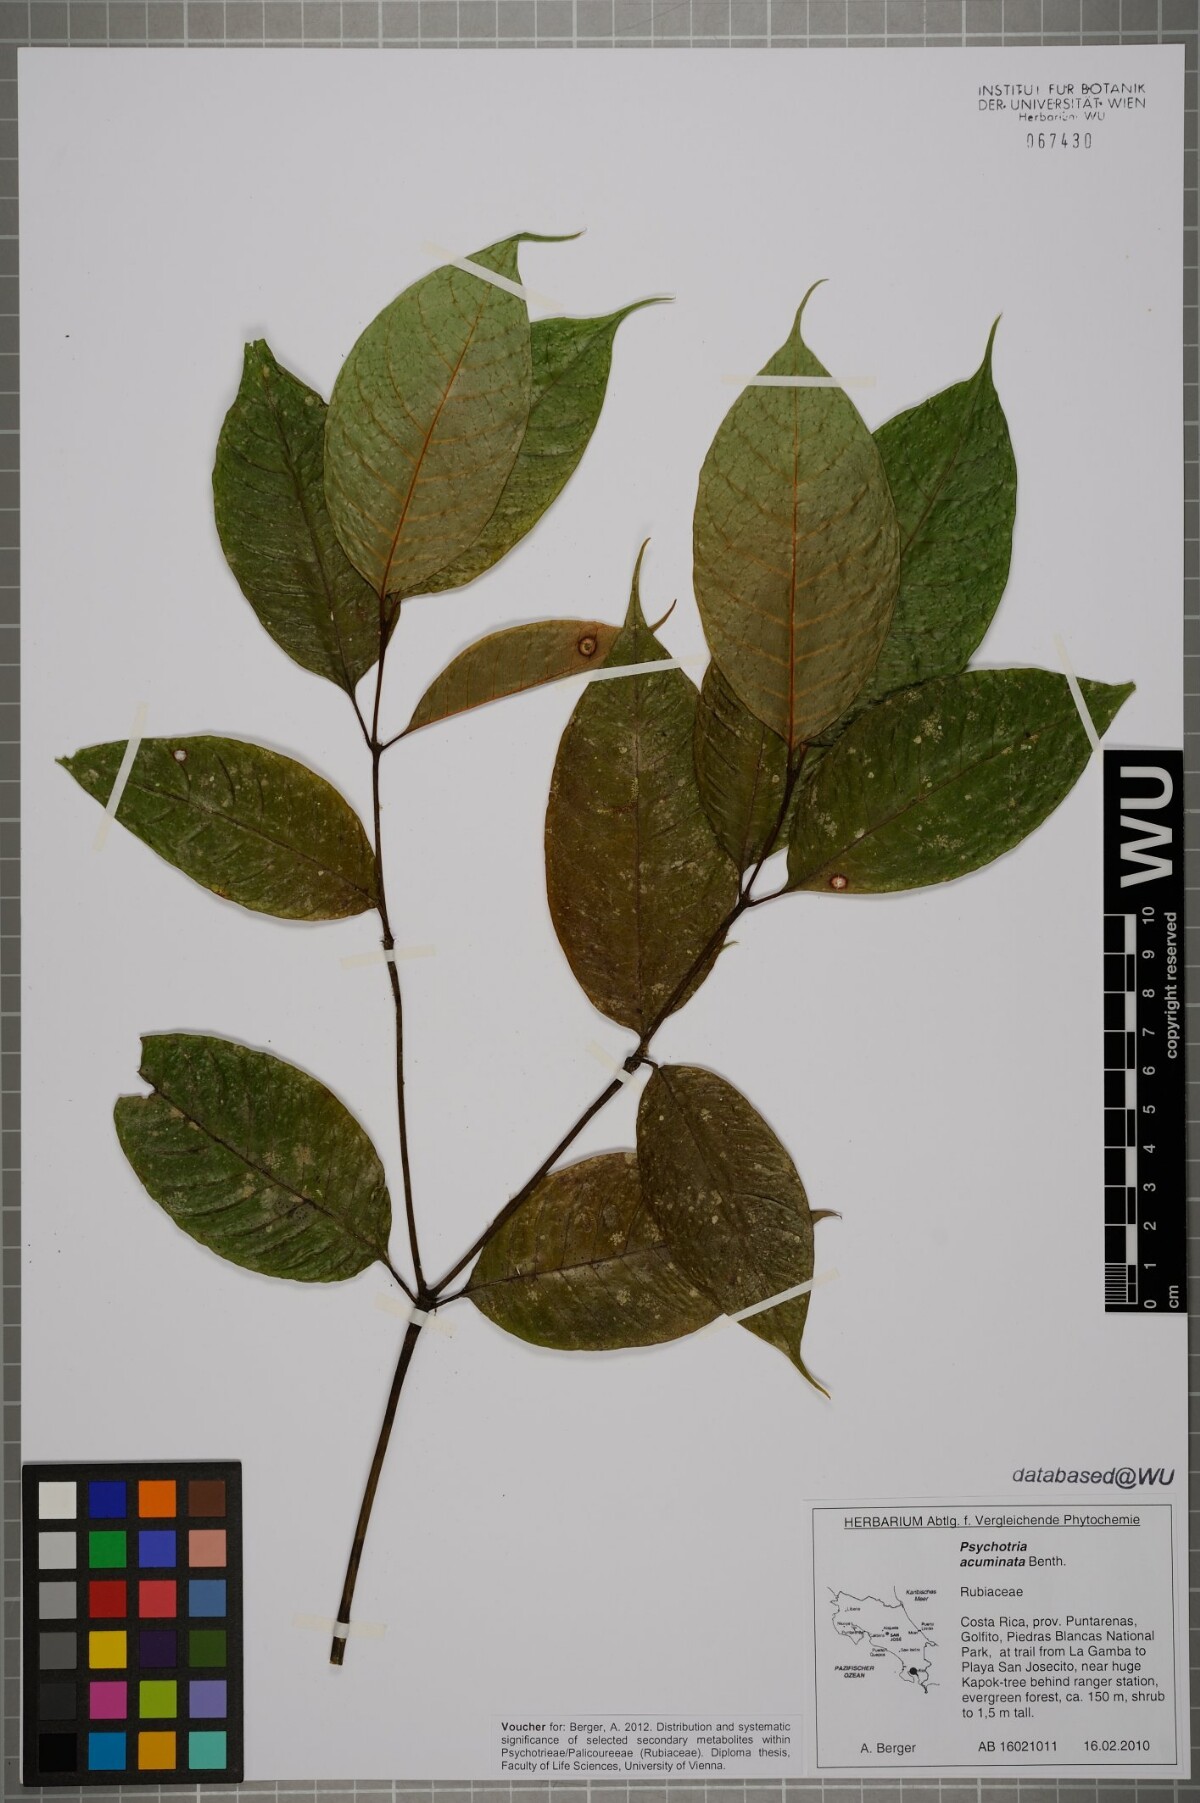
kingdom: Plantae
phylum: Tracheophyta
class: Magnoliopsida
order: Gentianales
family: Rubiaceae
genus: Palicourea
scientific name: Palicourea acuminata
